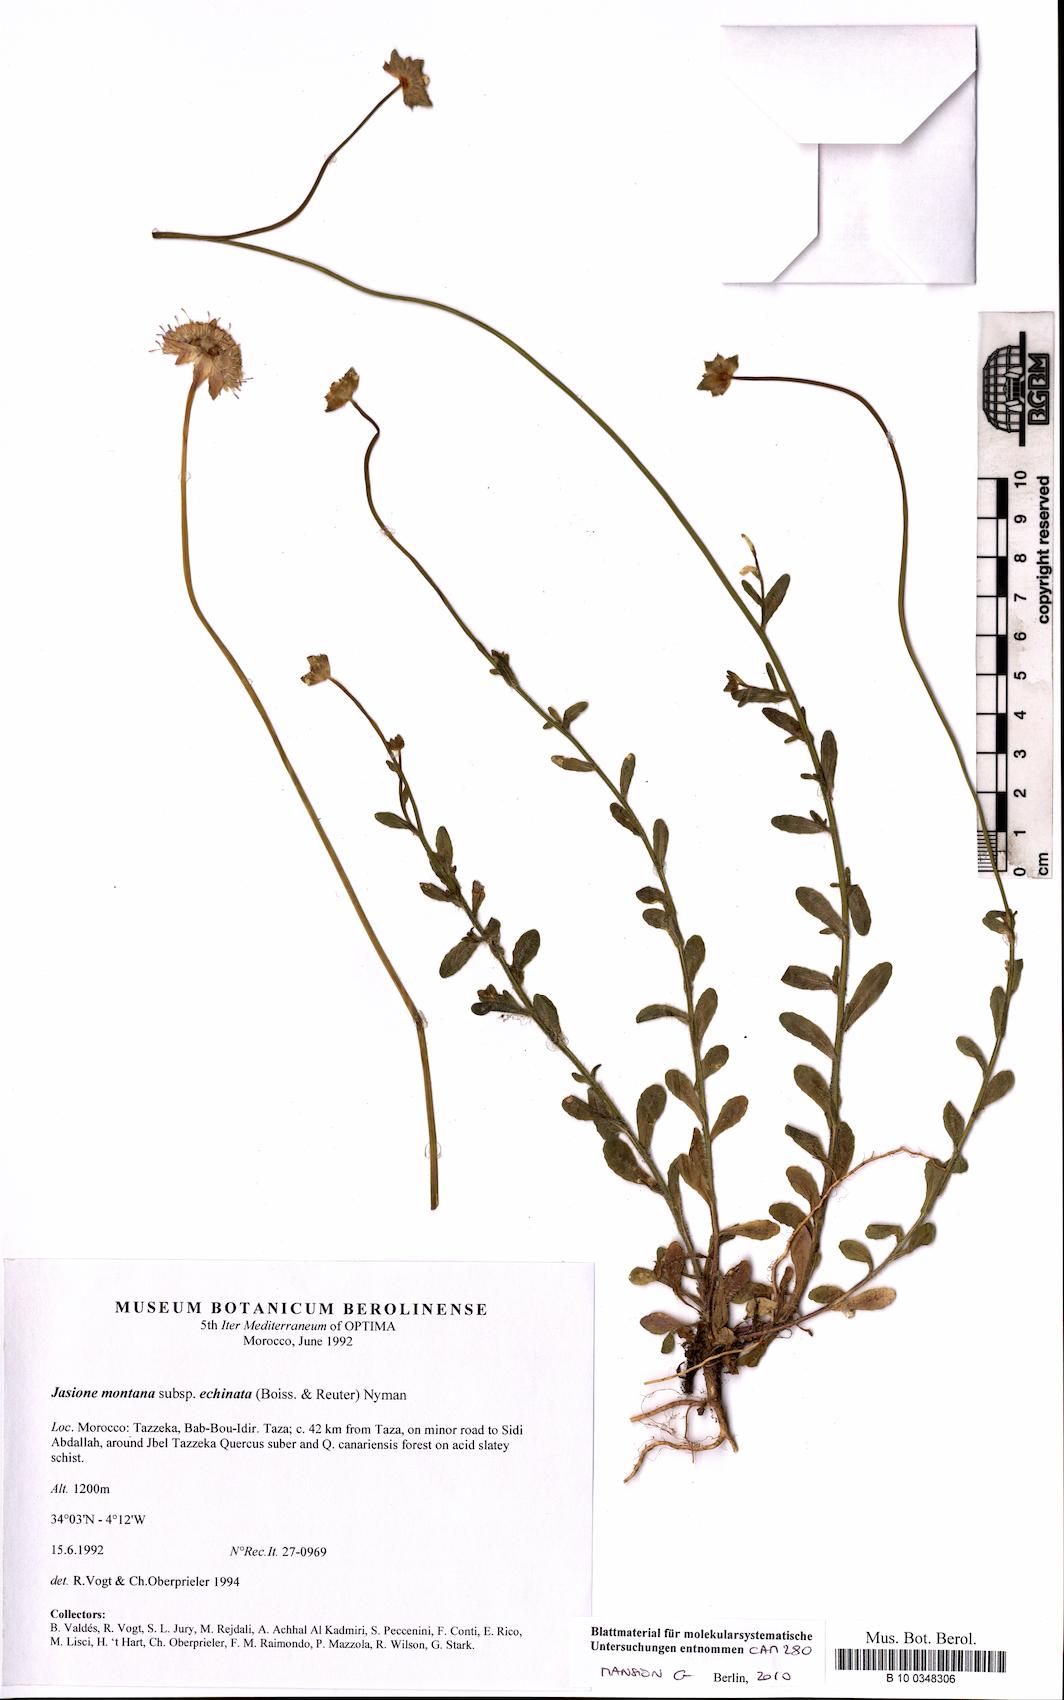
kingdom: Plantae
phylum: Tracheophyta
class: Magnoliopsida
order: Asterales
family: Campanulaceae
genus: Jasione
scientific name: Jasione montana
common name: Sheep's-bit
